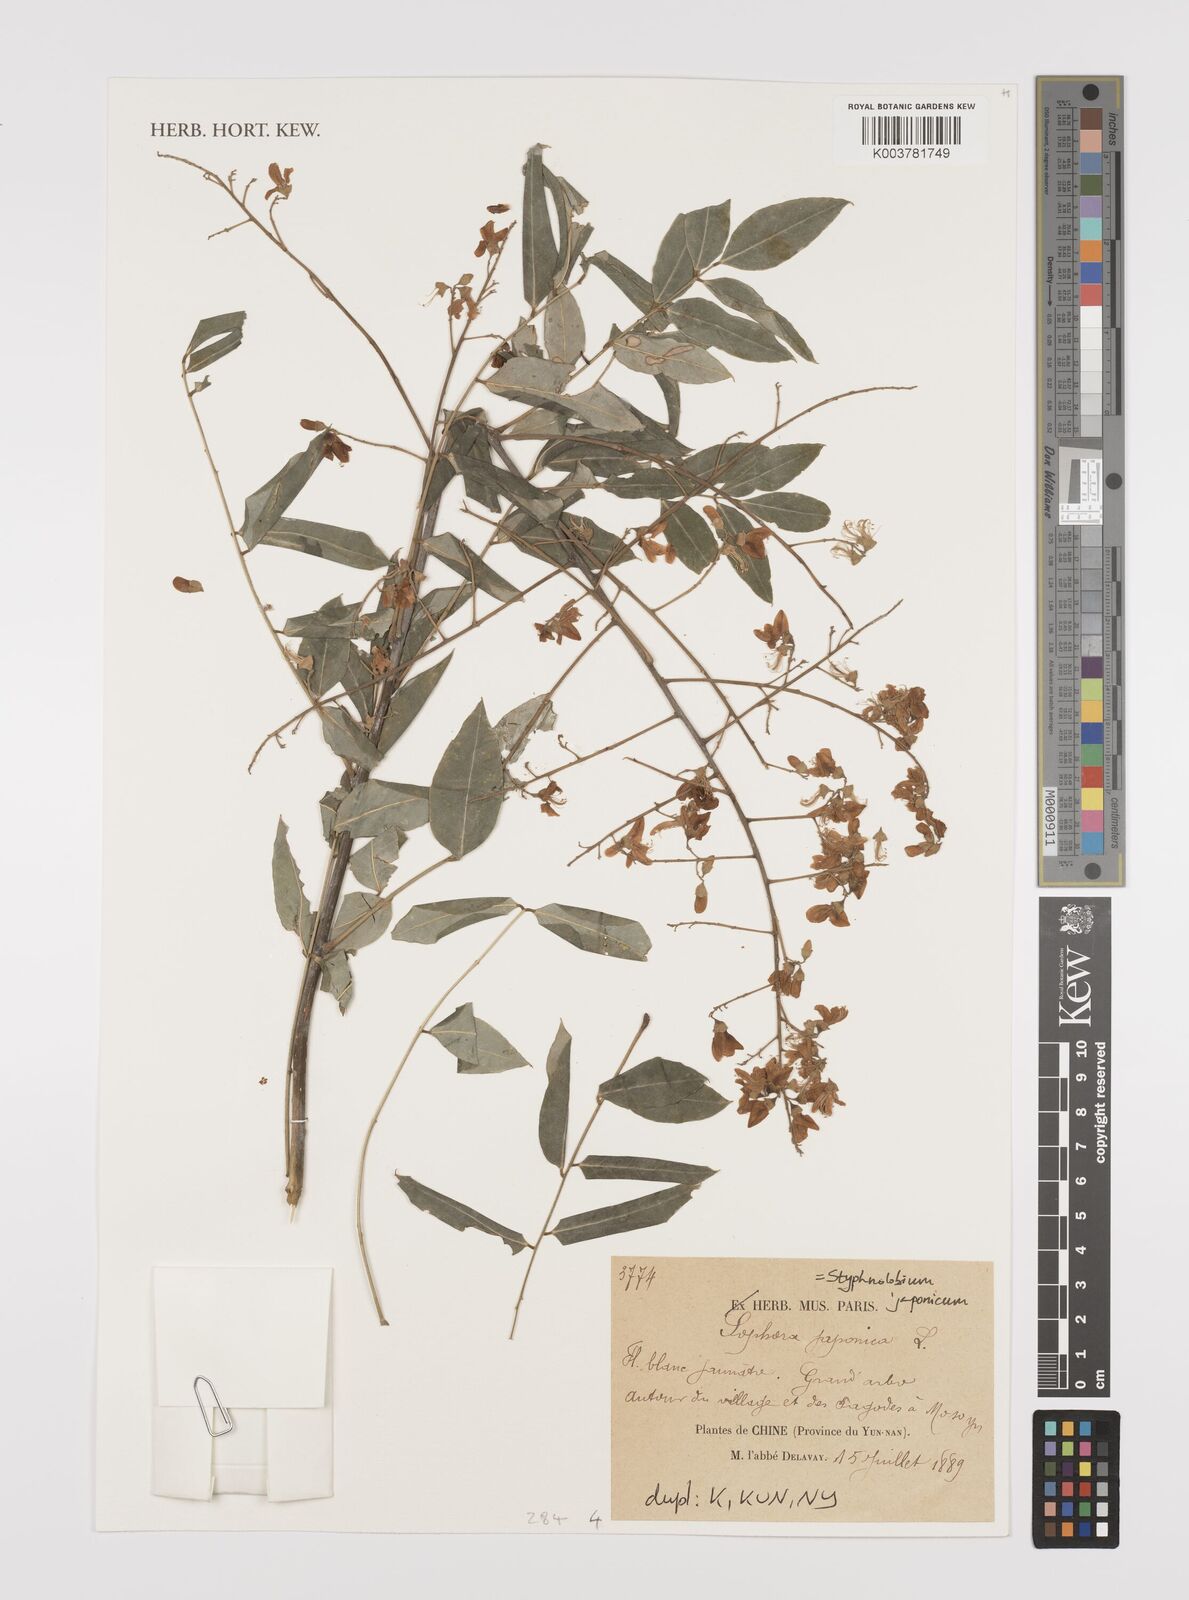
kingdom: Plantae
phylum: Tracheophyta
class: Magnoliopsida
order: Fabales
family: Fabaceae
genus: Styphnolobium
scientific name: Styphnolobium japonicum
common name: Chinese scholartree
